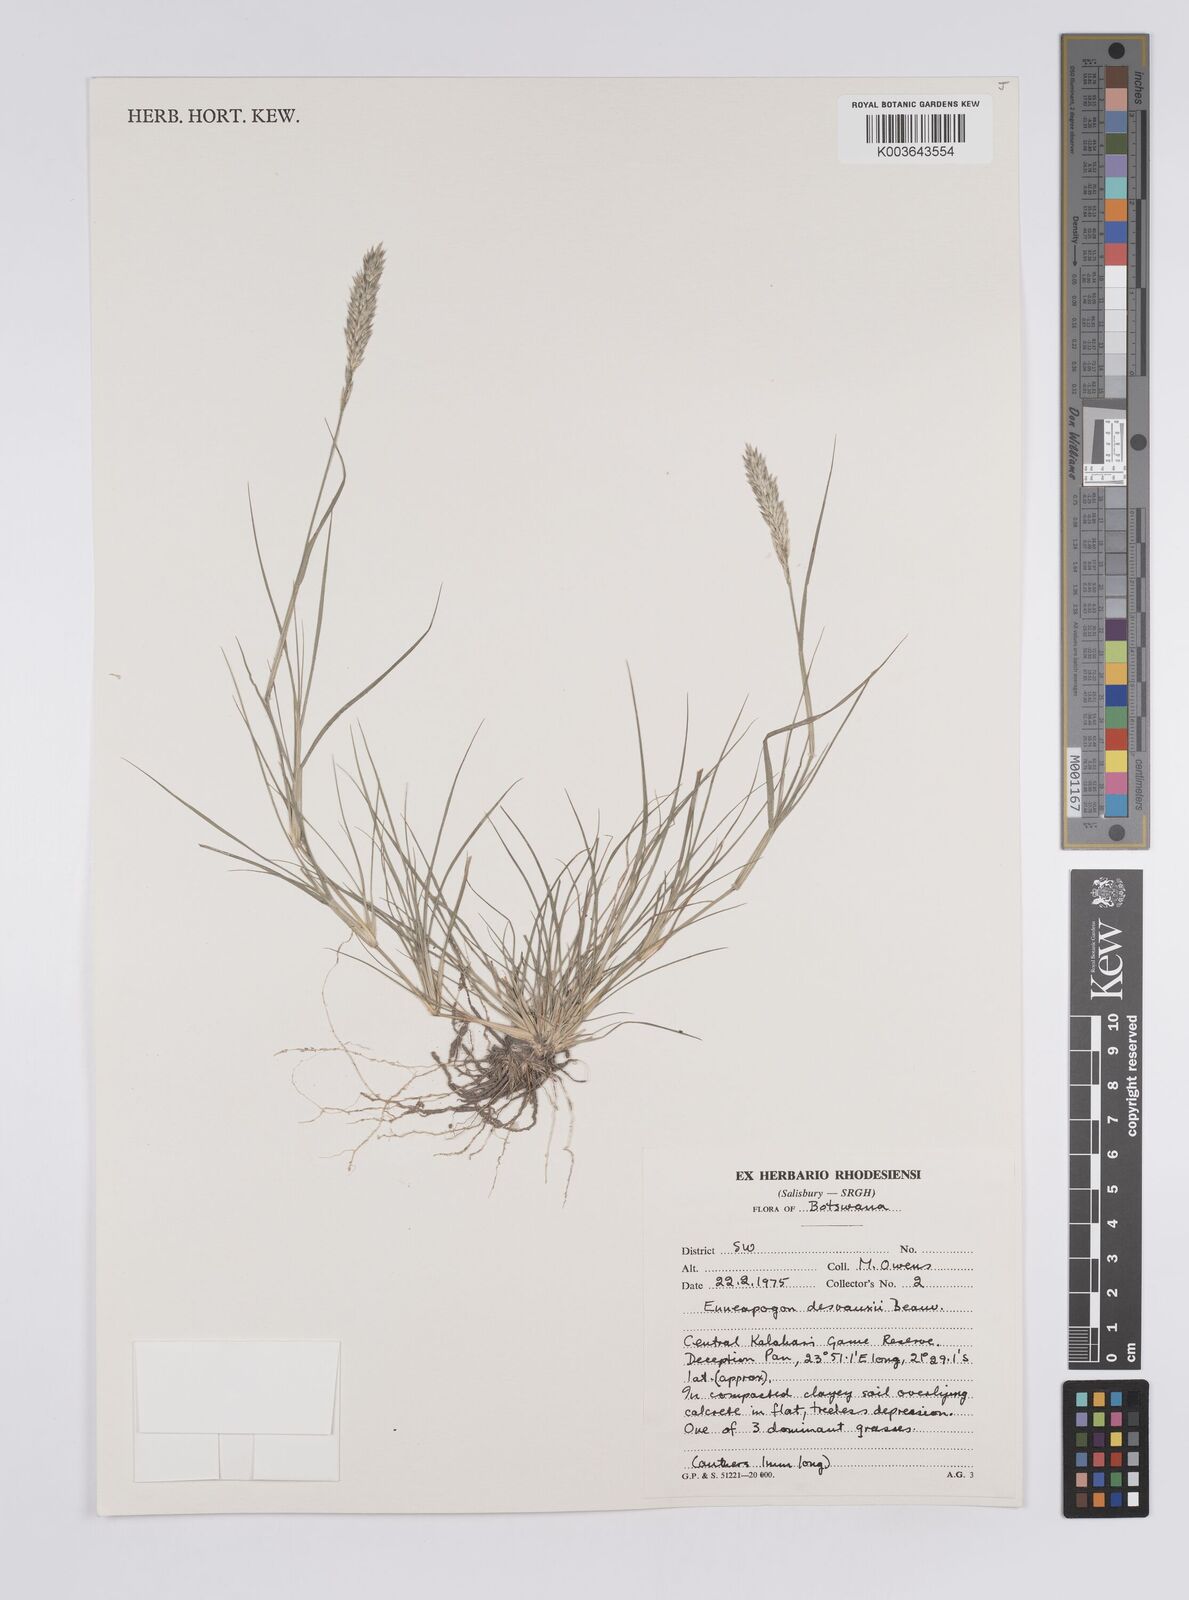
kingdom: Plantae
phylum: Tracheophyta
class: Liliopsida
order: Poales
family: Poaceae
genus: Enneapogon
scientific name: Enneapogon desvauxii
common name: Feather pappus grass
